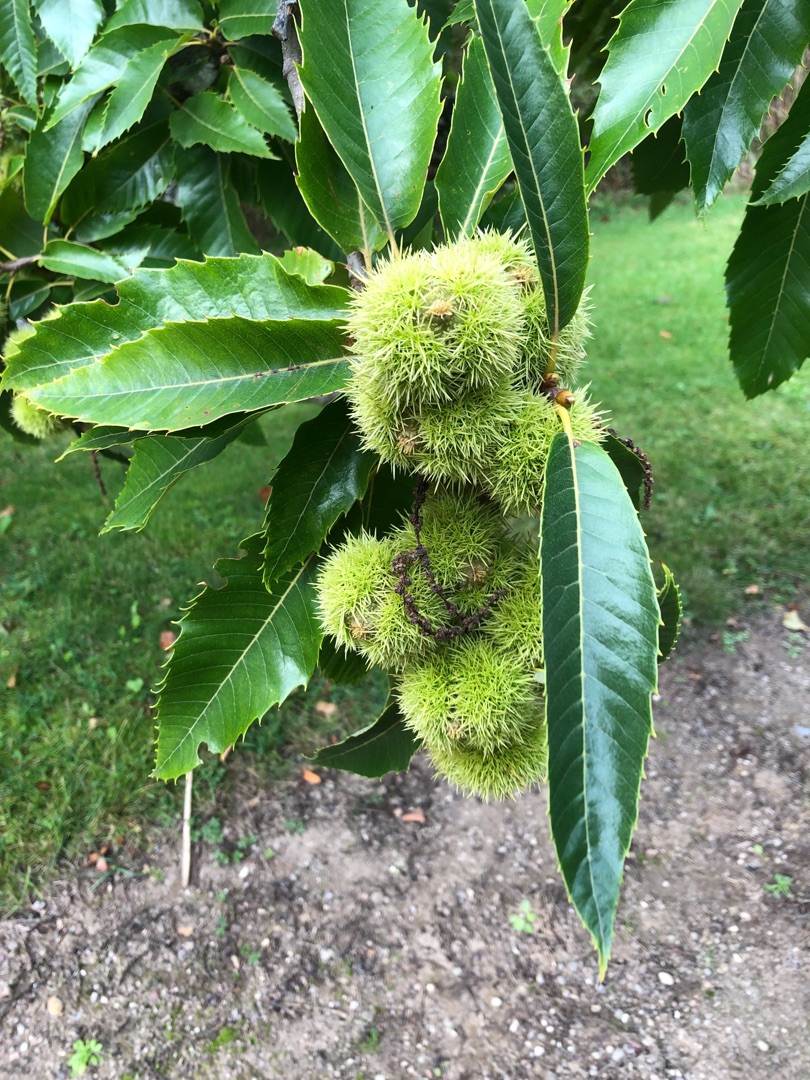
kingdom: Plantae
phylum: Tracheophyta
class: Magnoliopsida
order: Fagales
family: Fagaceae
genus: Castanea
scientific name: Castanea sativa
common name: Ægte kastanie
